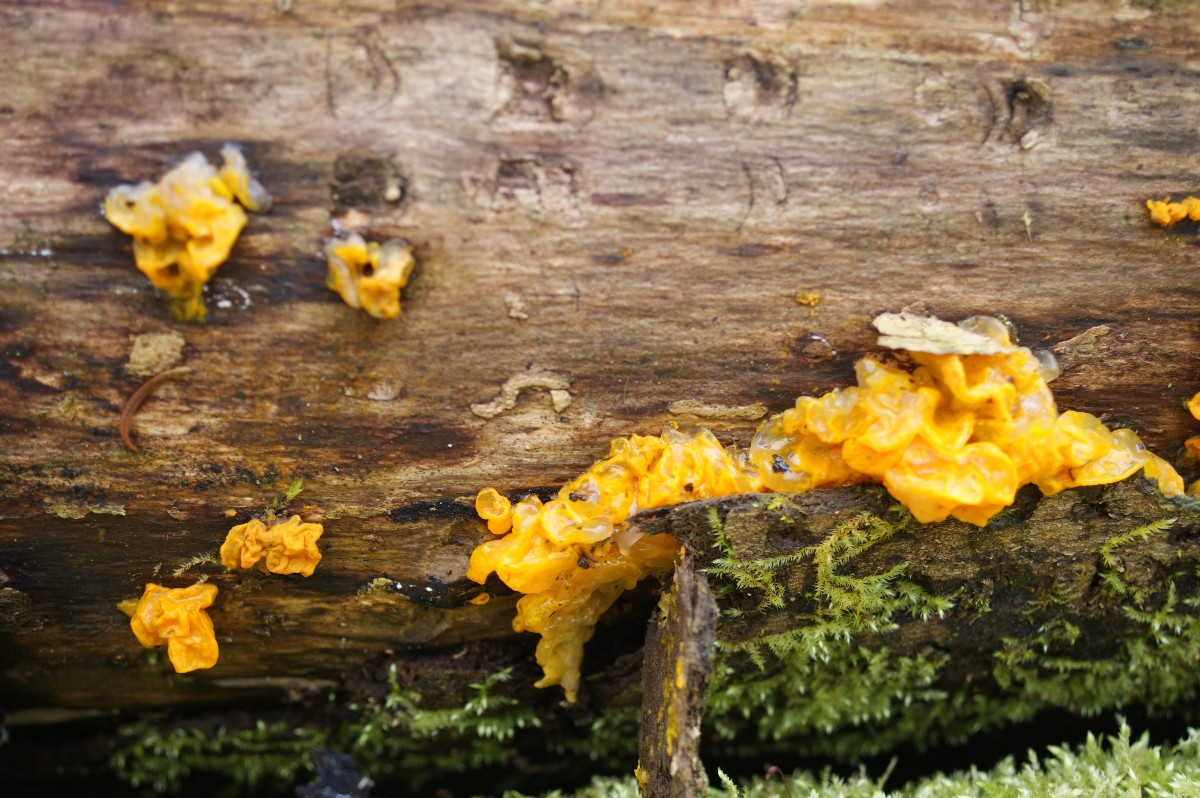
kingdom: Fungi
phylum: Basidiomycota
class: Tremellomycetes
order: Tremellales
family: Tremellaceae
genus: Tremella
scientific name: Tremella mesenterica
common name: gul bævresvamp
